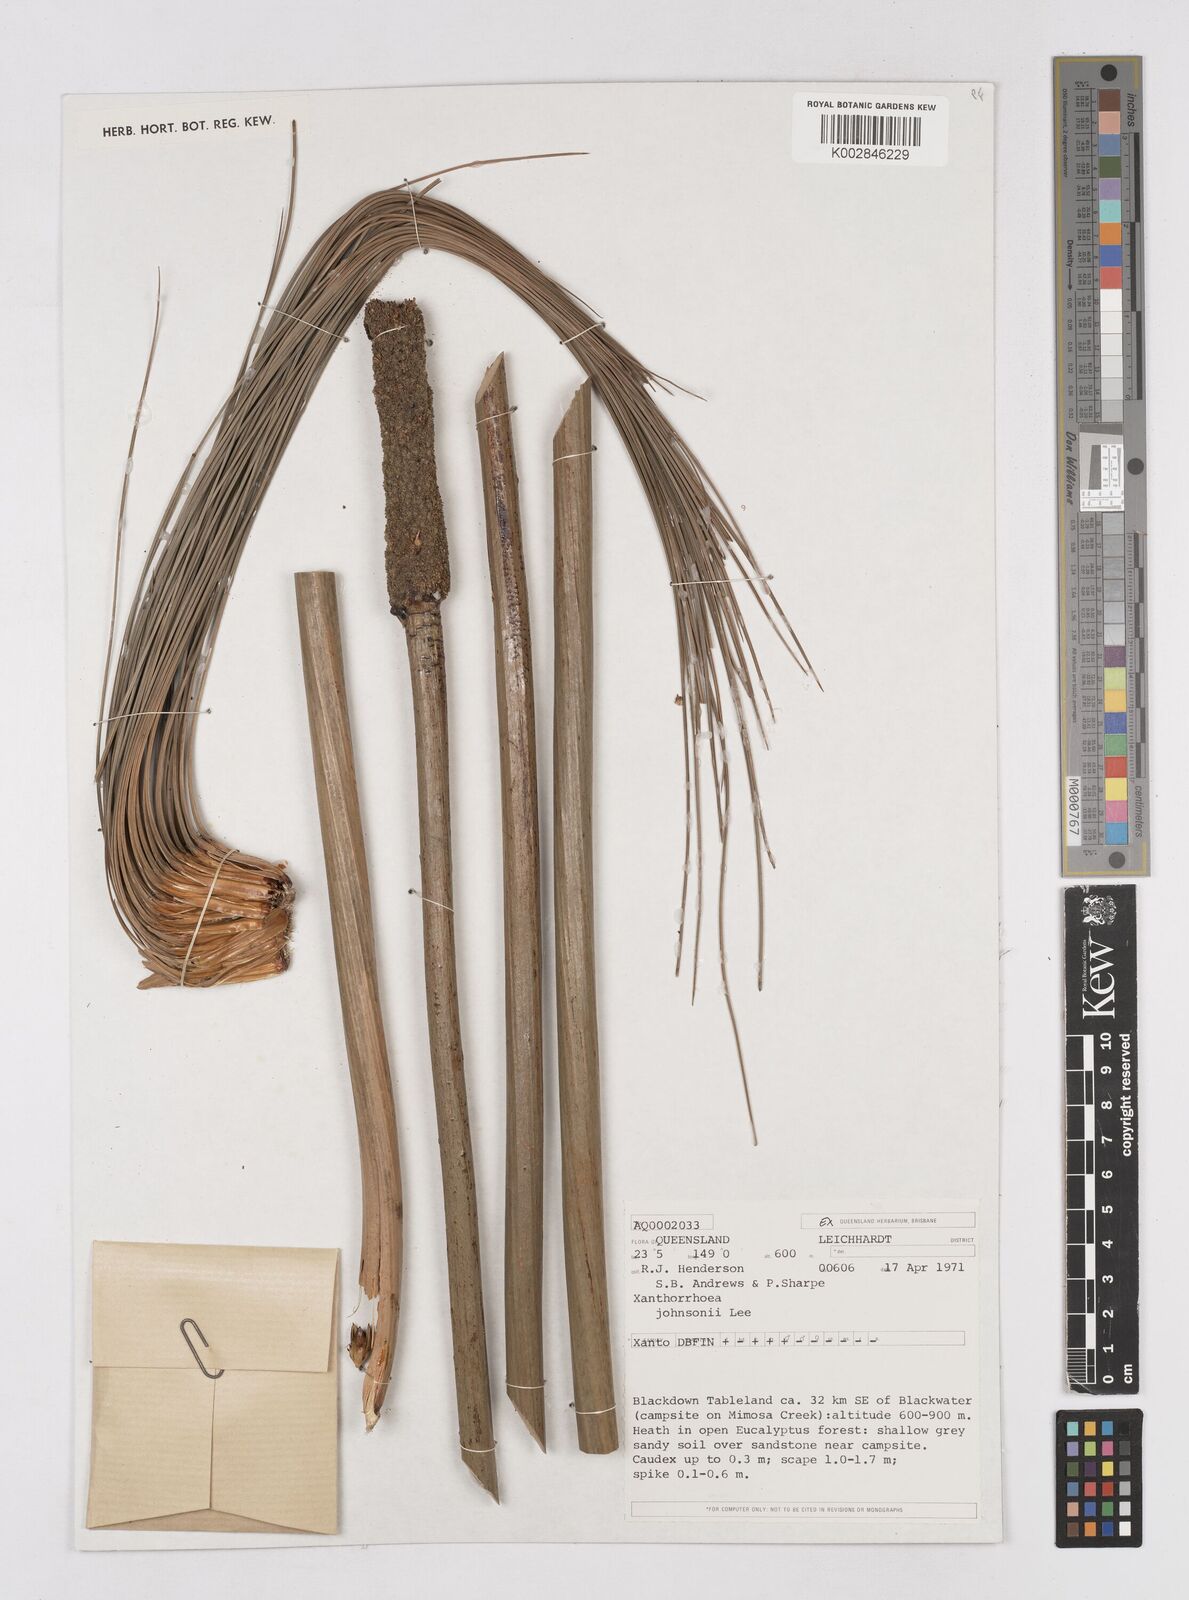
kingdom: Plantae
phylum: Tracheophyta
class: Liliopsida
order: Asparagales
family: Asphodelaceae
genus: Xanthorrhoea
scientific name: Xanthorrhoea johnsonii
